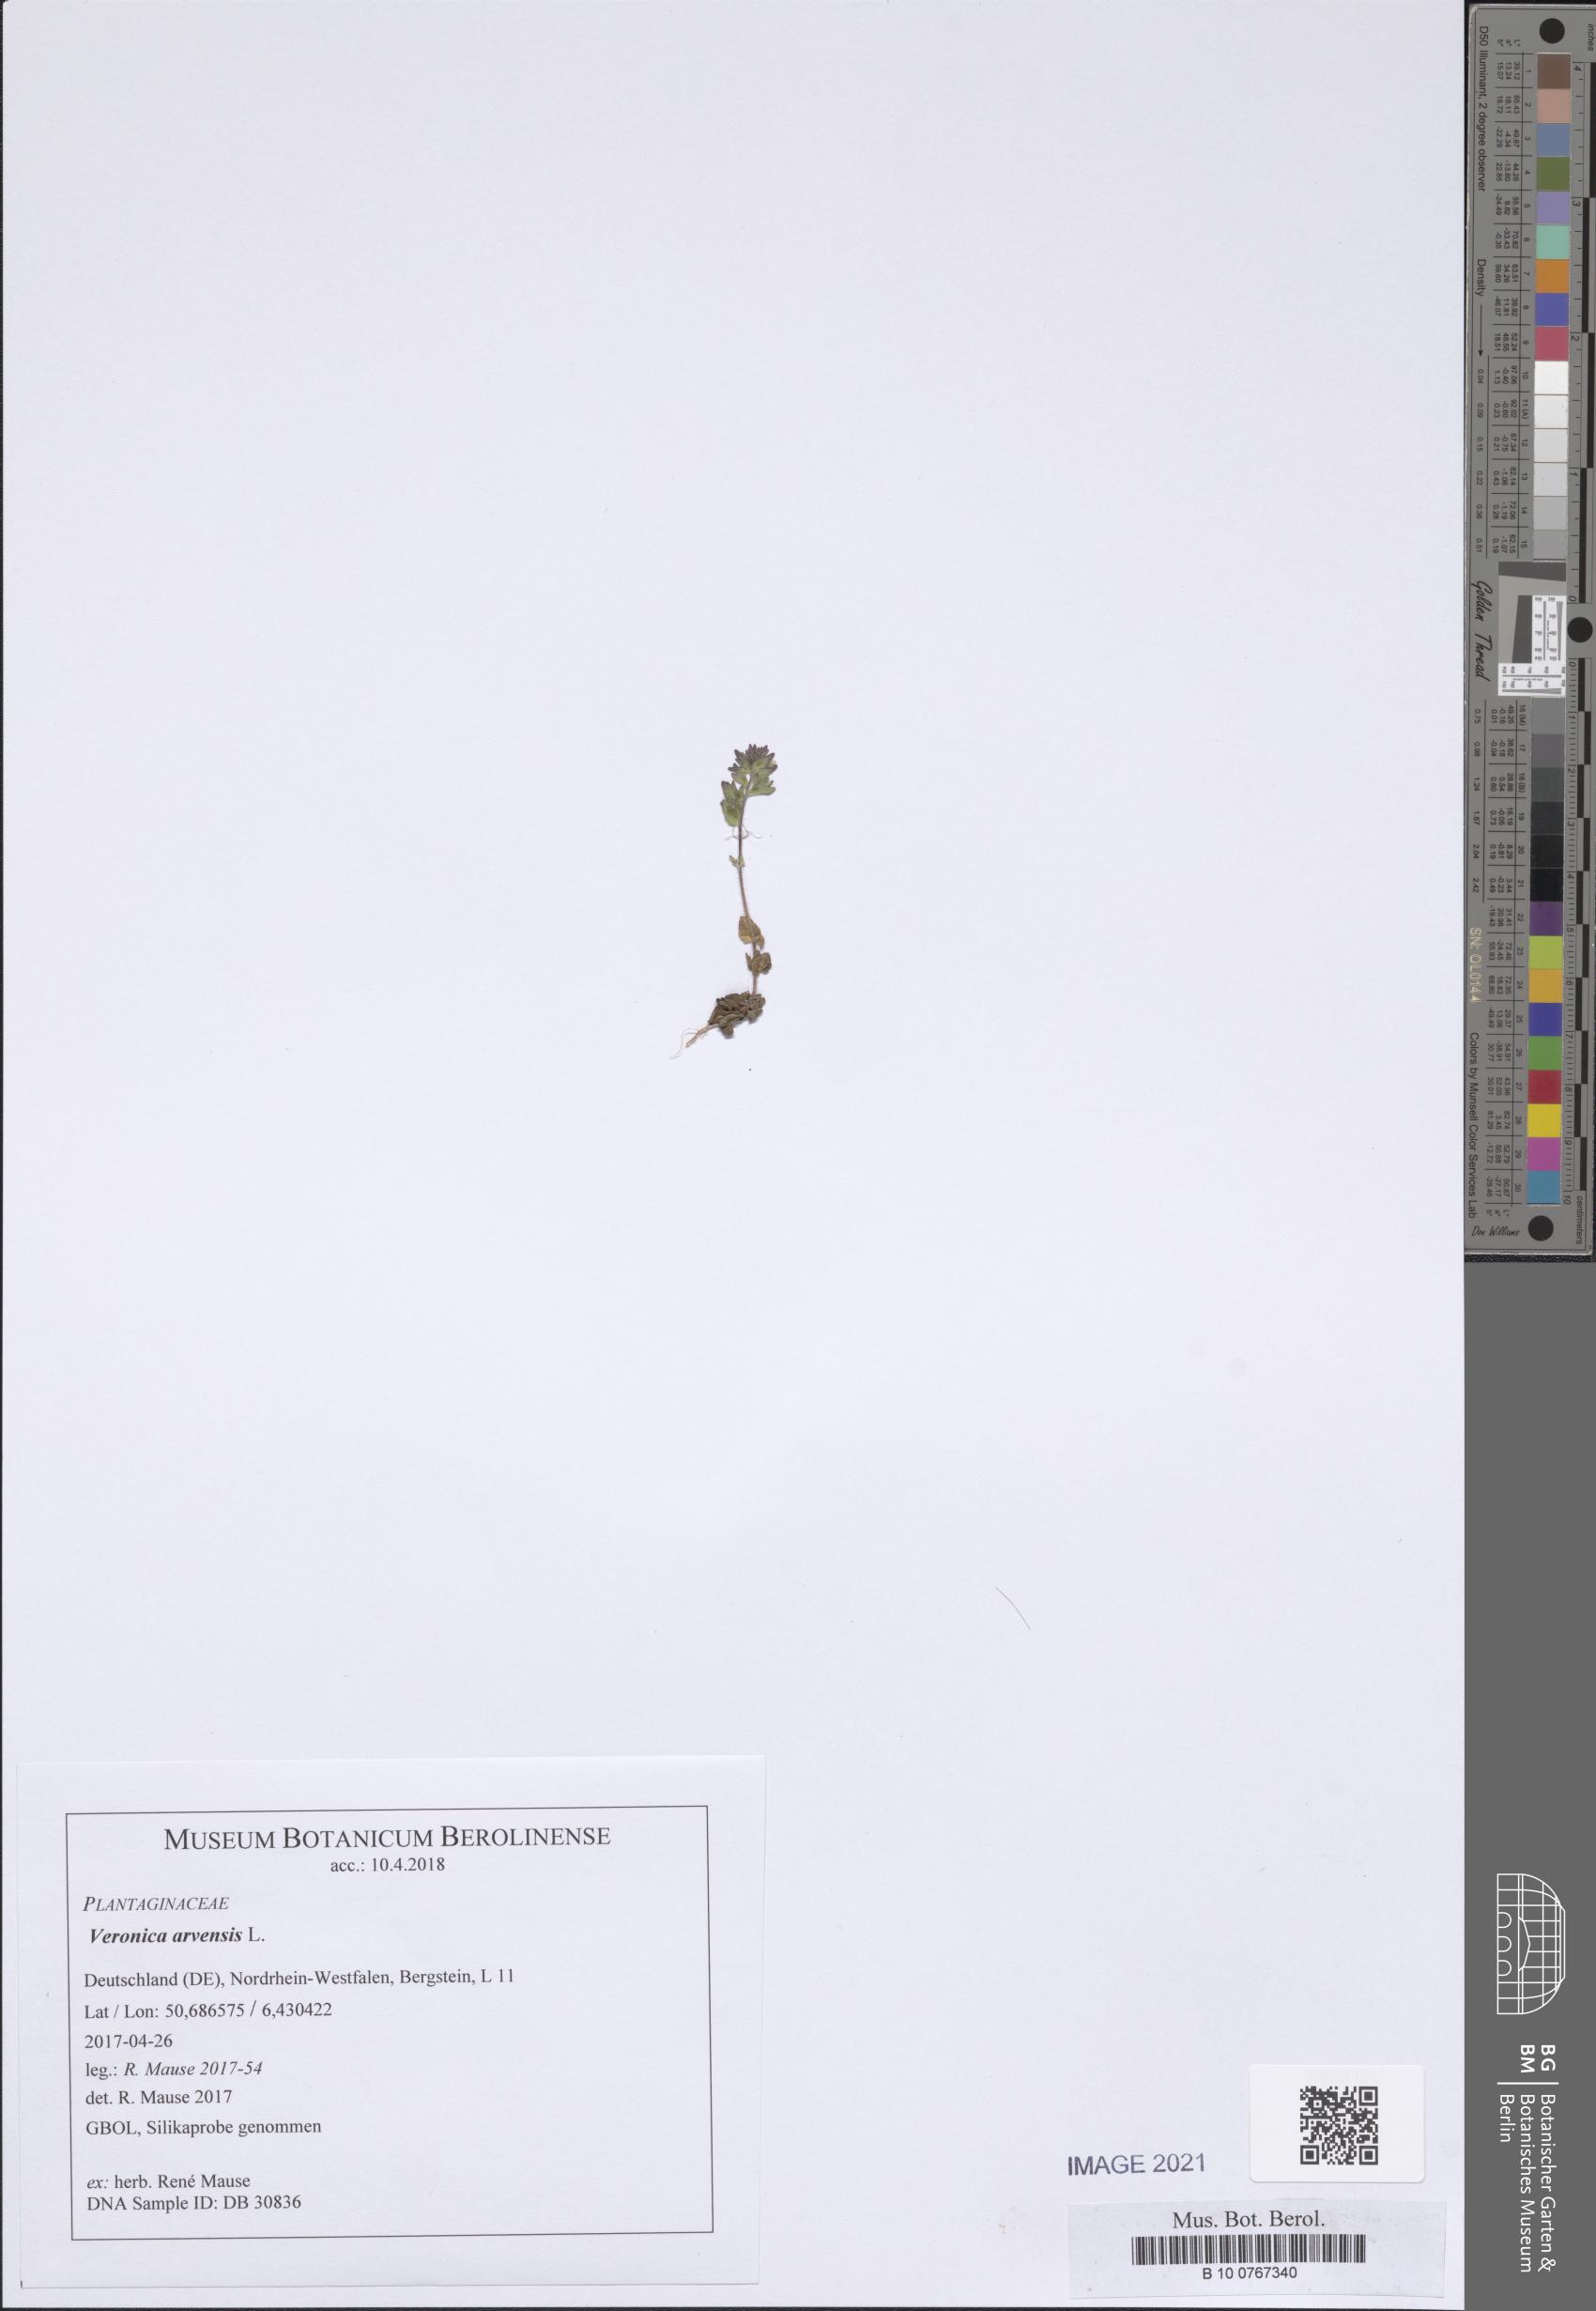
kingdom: Plantae
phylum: Tracheophyta
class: Magnoliopsida
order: Lamiales
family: Plantaginaceae
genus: Veronica
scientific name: Veronica arvensis
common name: Corn speedwell
